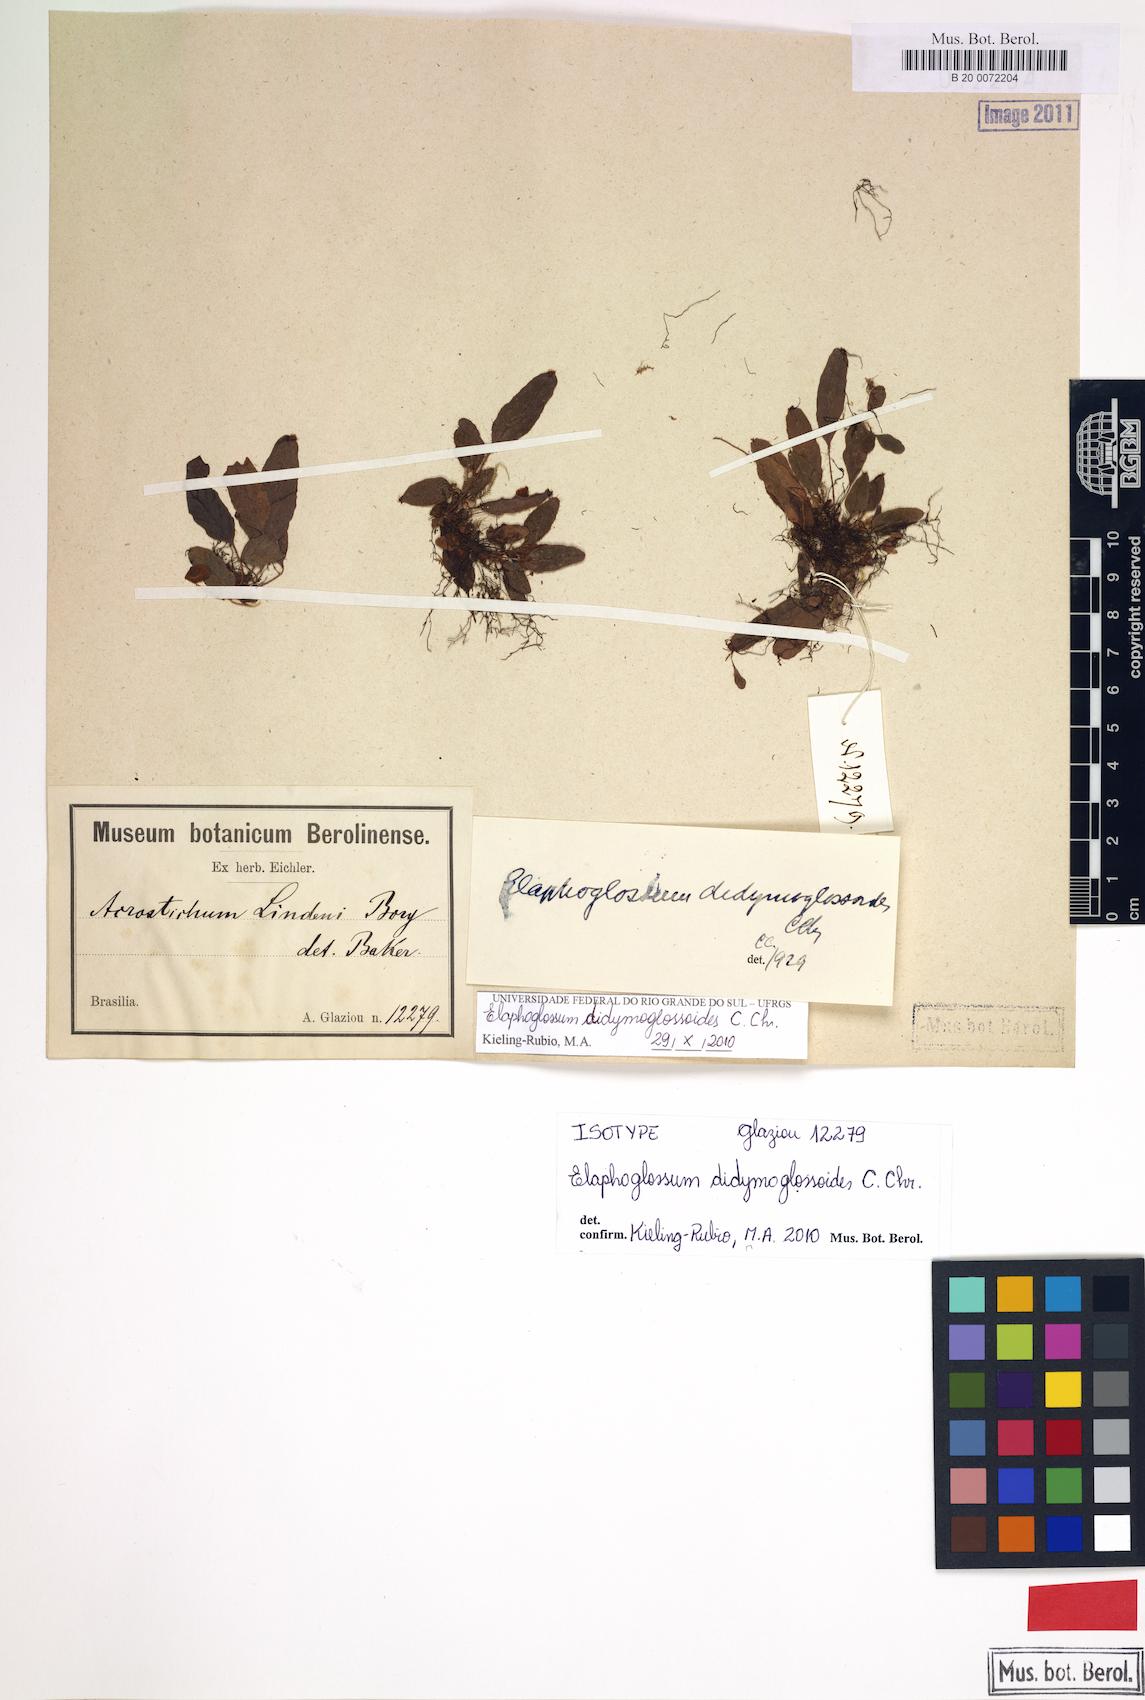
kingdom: Plantae
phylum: Tracheophyta
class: Polypodiopsida
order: Polypodiales
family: Dryopteridaceae
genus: Elaphoglossum
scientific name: Elaphoglossum didymoglossoides
